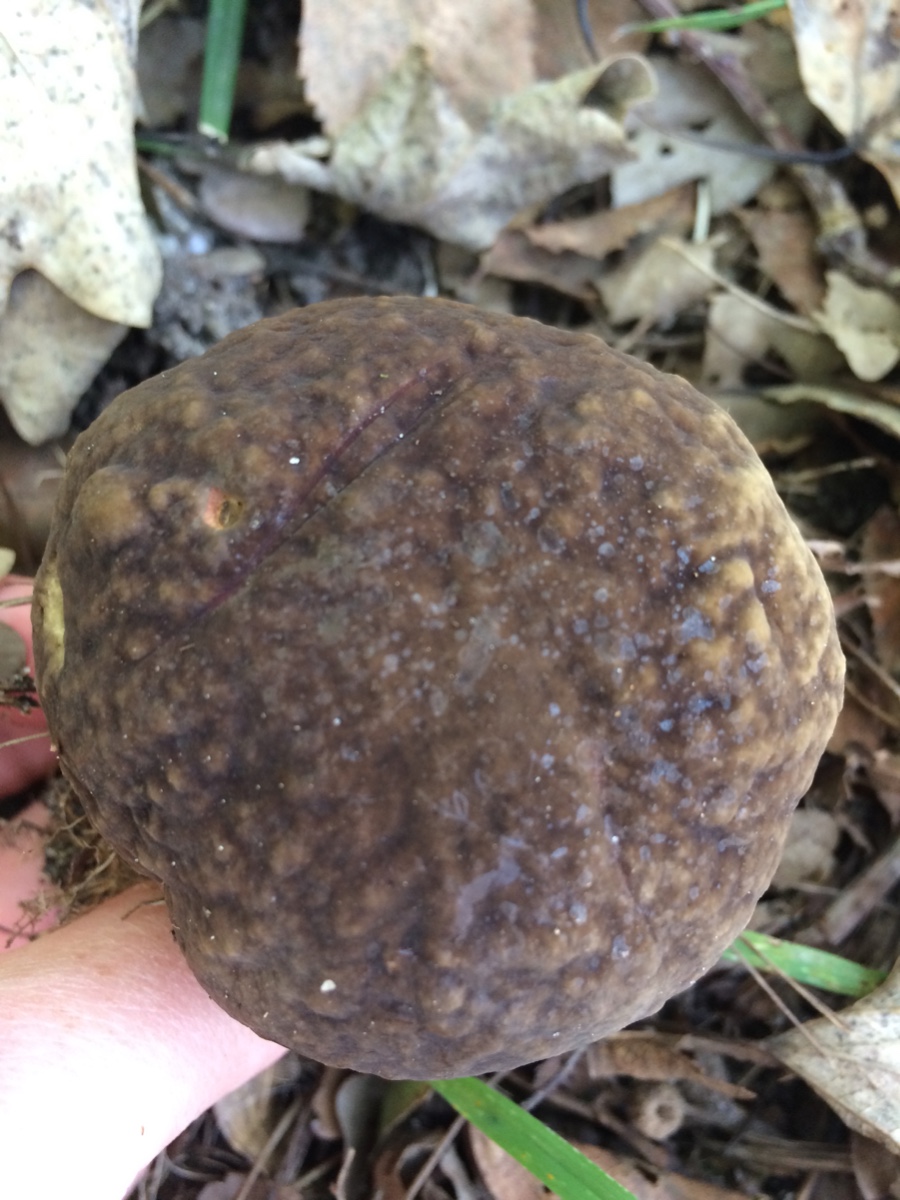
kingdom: Fungi
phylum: Basidiomycota
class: Agaricomycetes
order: Boletales
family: Boletaceae
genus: Xerocomellus
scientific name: Xerocomellus pruinatus
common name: dugget rørhat
